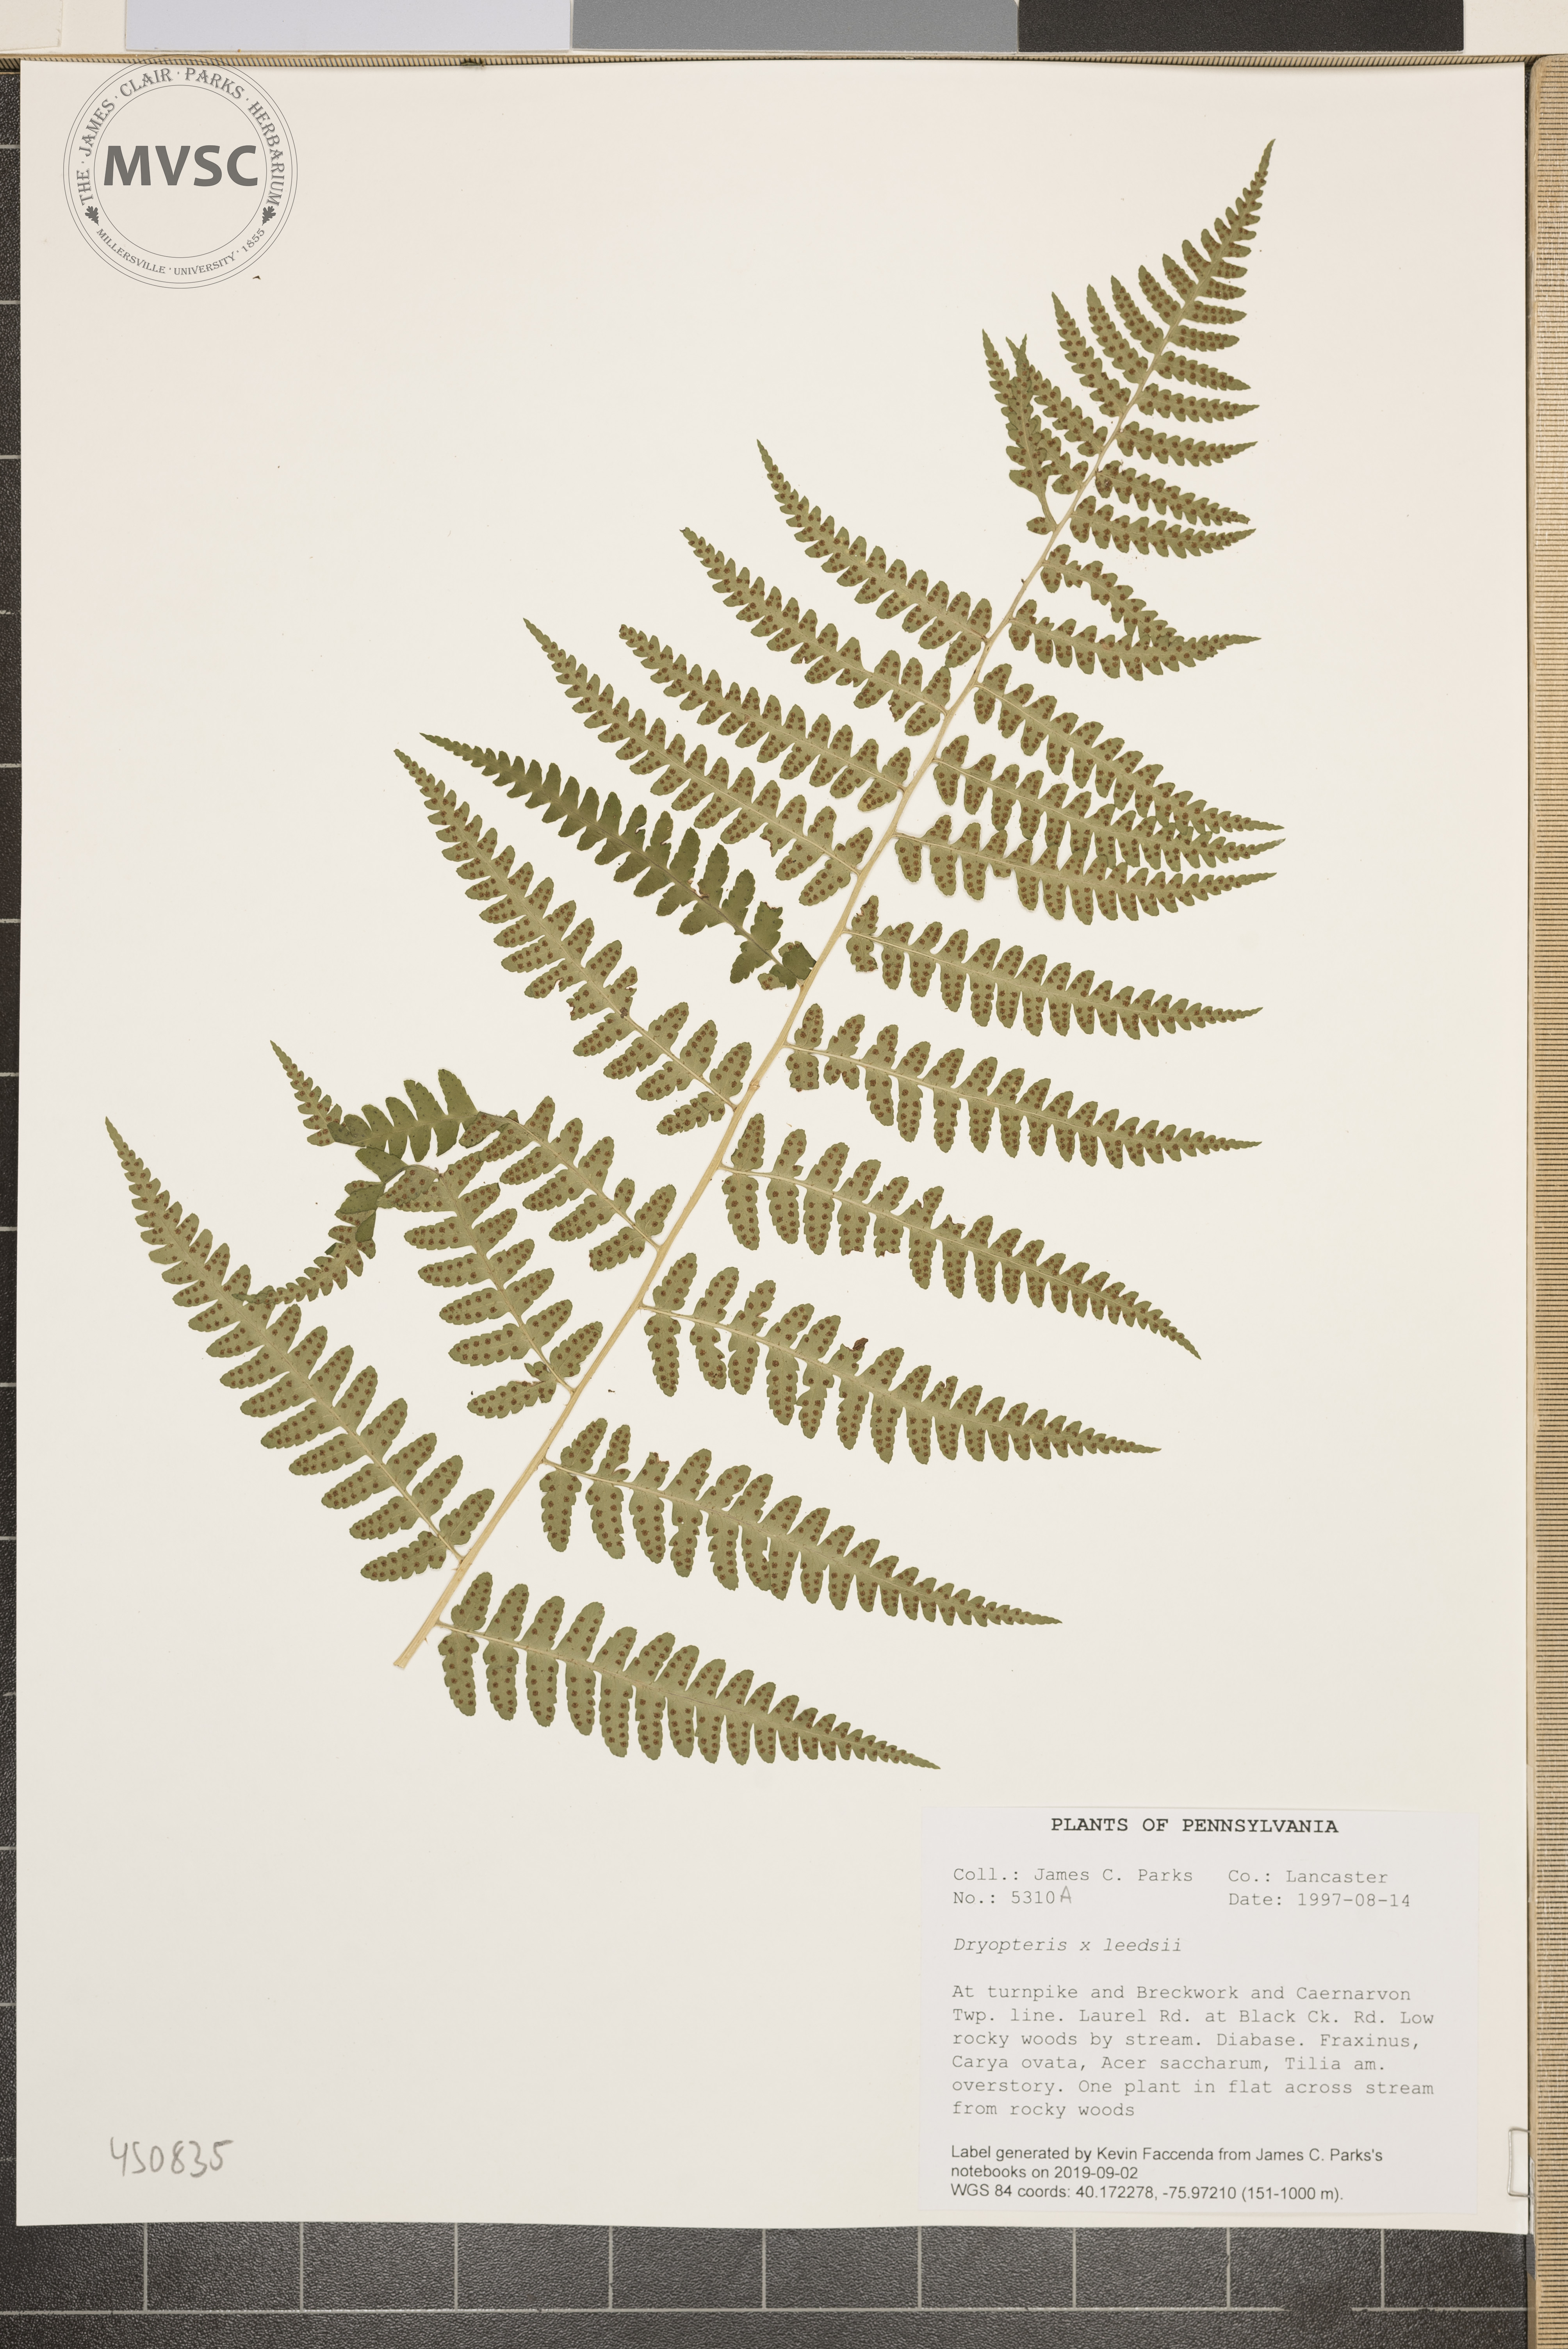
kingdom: Plantae
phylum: Tracheophyta
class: Polypodiopsida
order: Polypodiales
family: Dryopteridaceae
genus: Dryopteris
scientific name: Dryopteris
